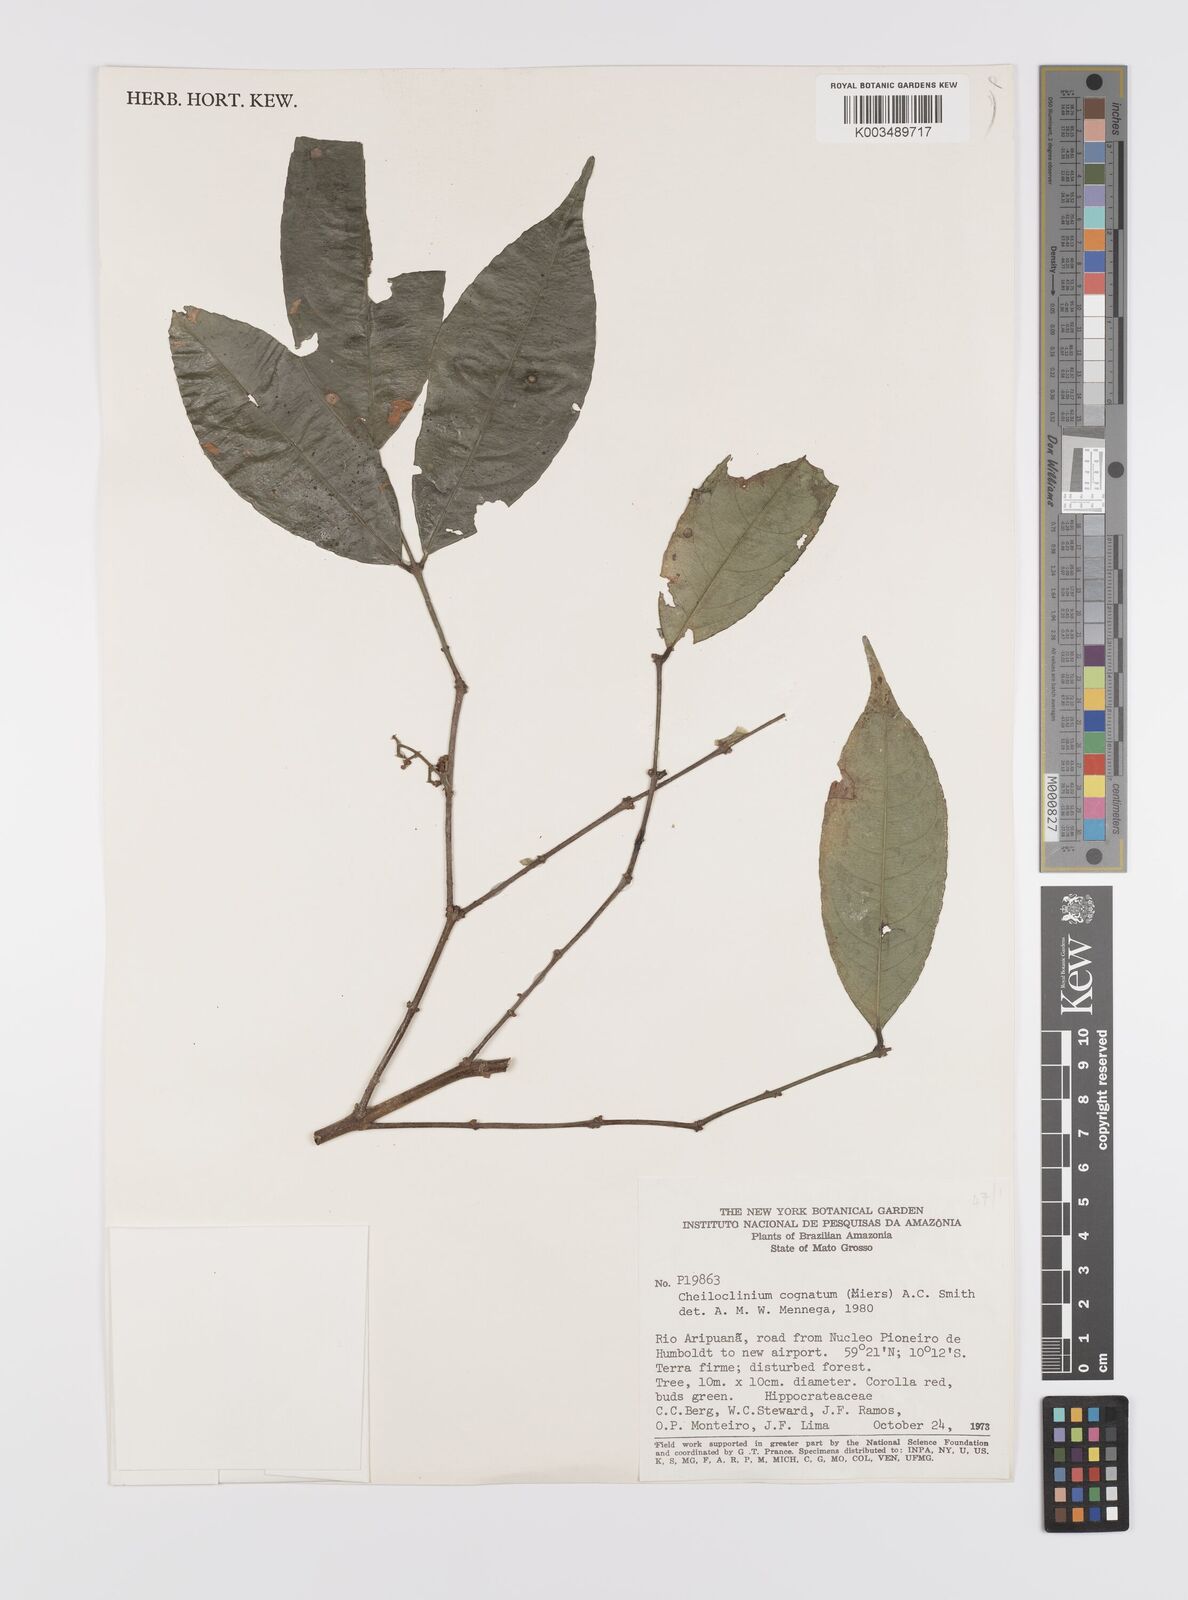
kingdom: Plantae
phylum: Tracheophyta
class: Magnoliopsida
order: Celastrales
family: Celastraceae
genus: Cheiloclinium
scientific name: Cheiloclinium cognatum
